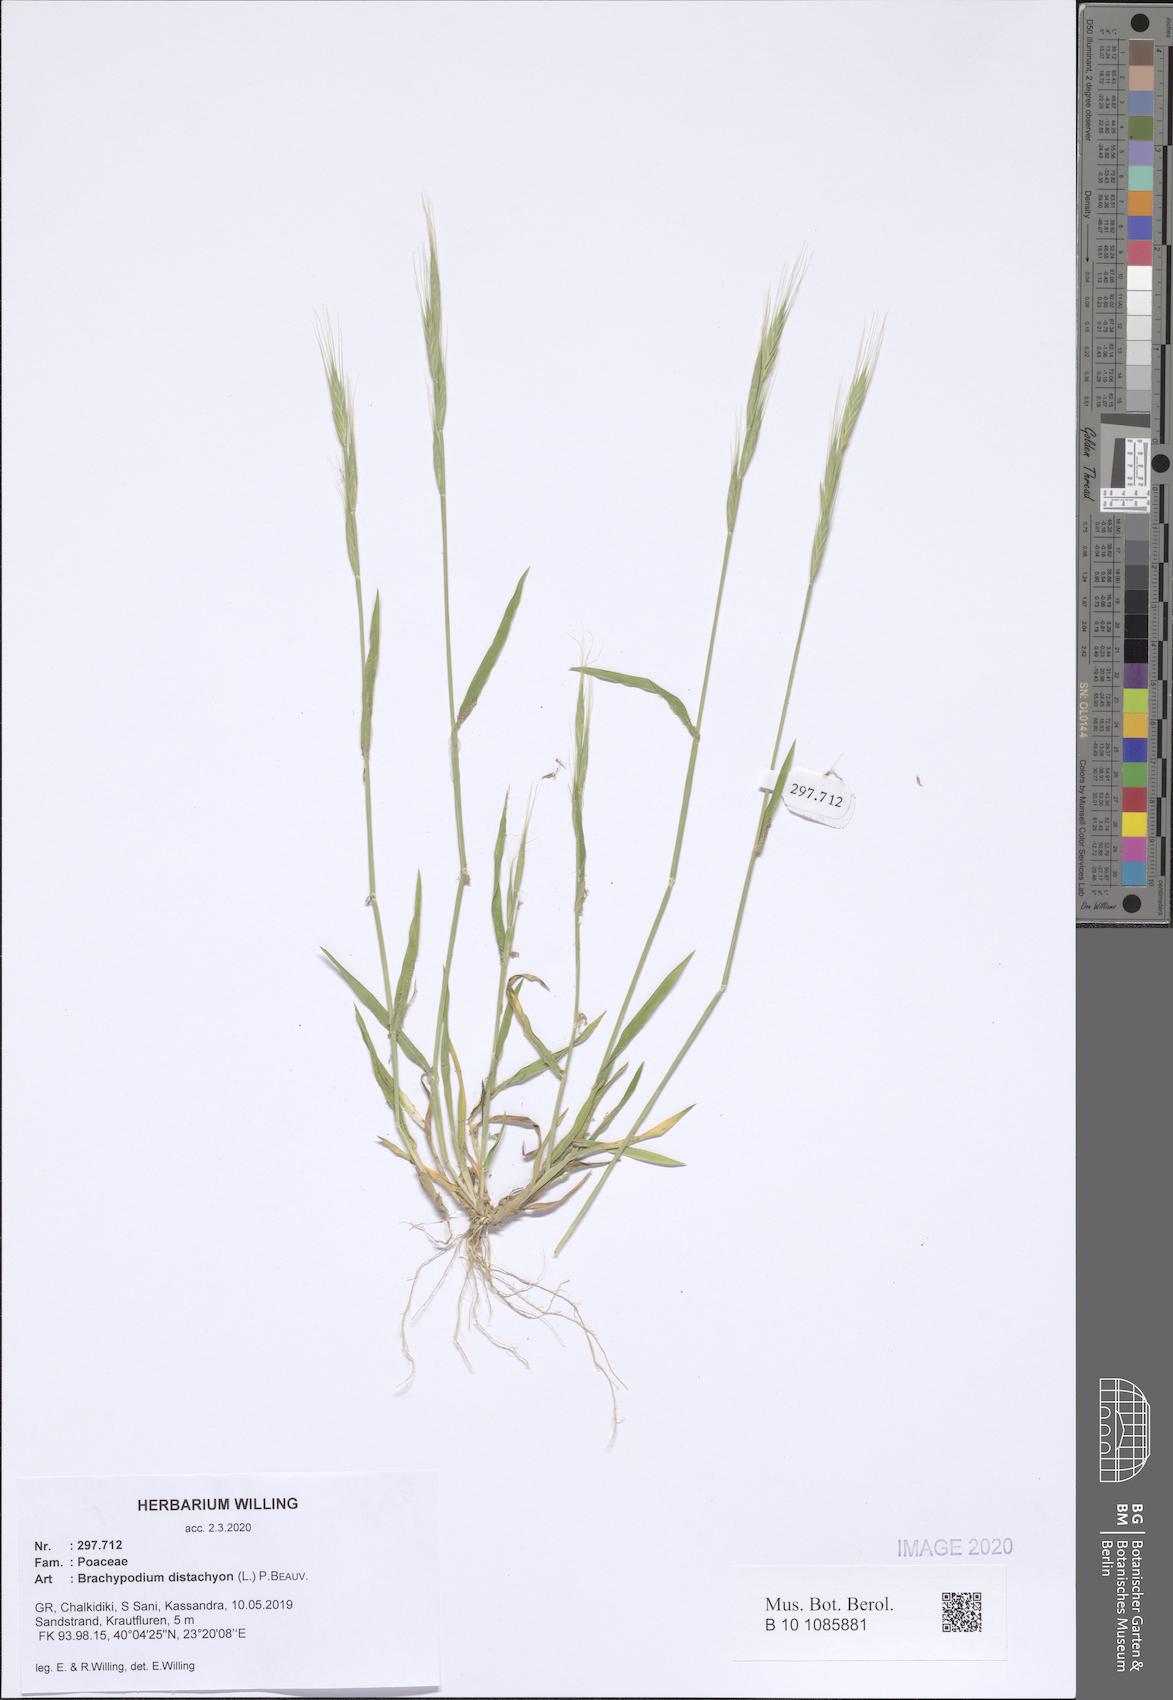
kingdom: Plantae
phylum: Tracheophyta
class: Liliopsida
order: Poales
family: Poaceae
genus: Brachypodium
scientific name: Brachypodium distachyon
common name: Stiff brome
